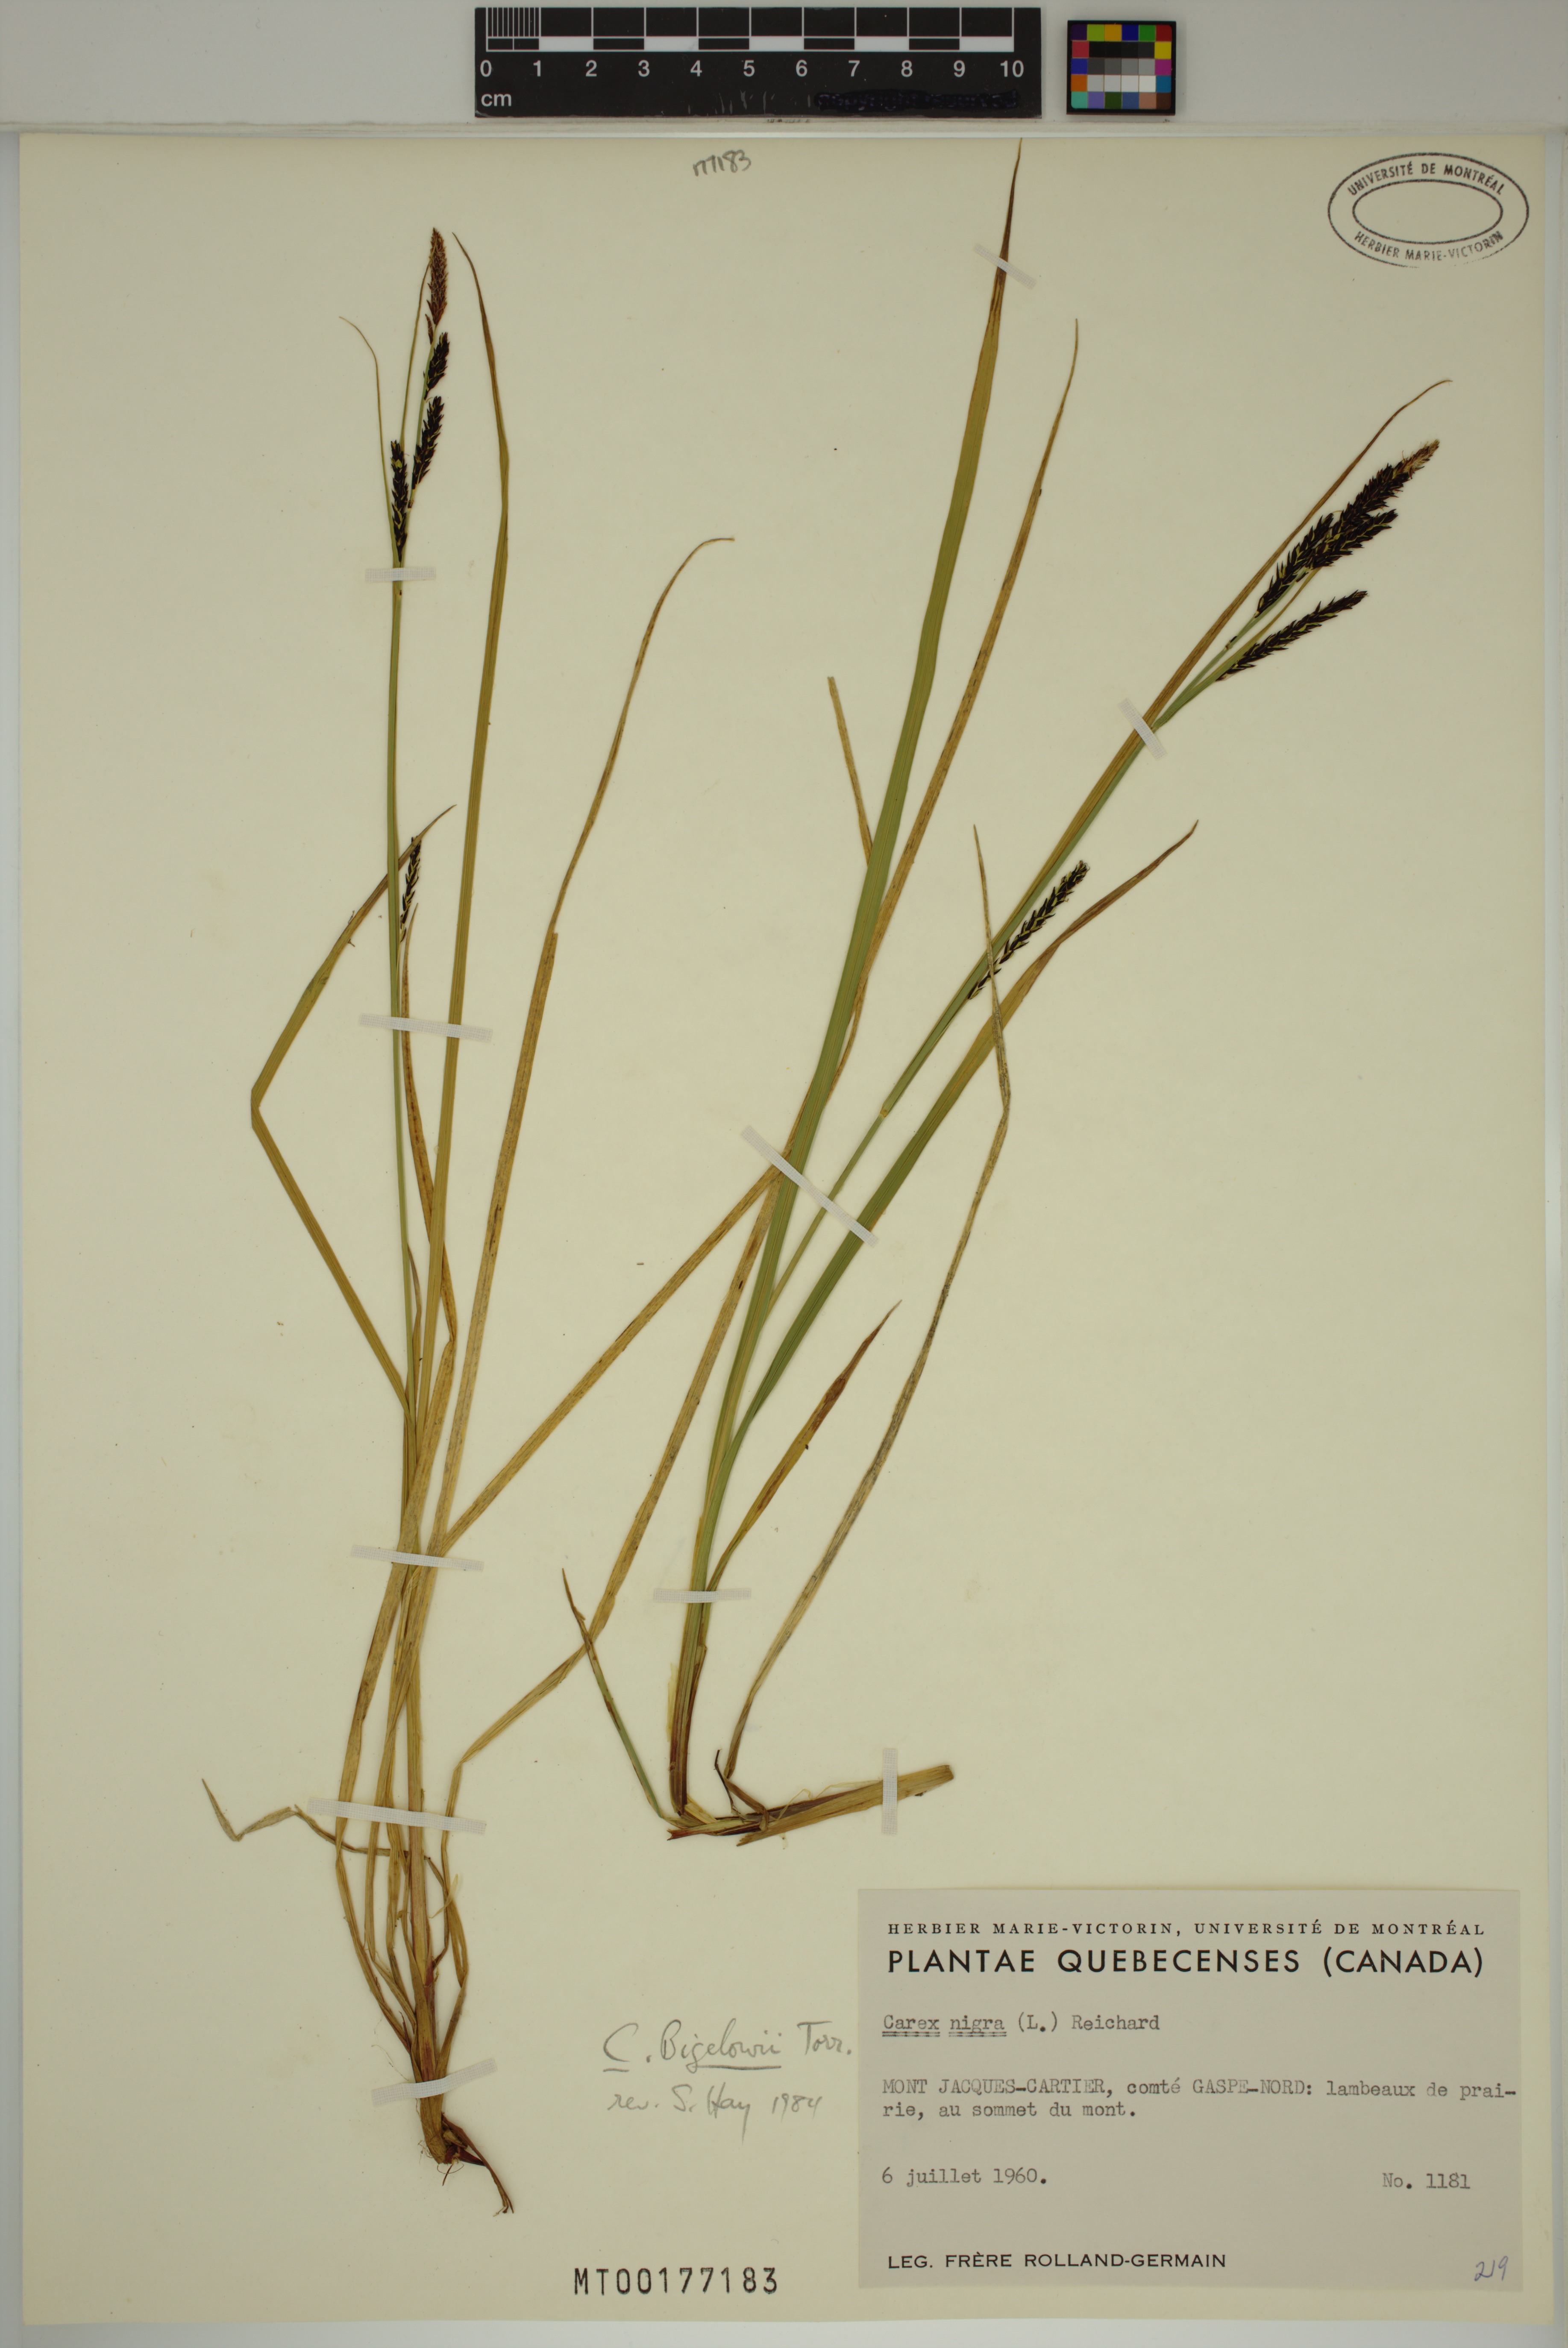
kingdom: Plantae
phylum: Tracheophyta
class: Liliopsida
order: Poales
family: Cyperaceae
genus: Carex
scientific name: Carex bigelowii
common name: Stiff sedge
